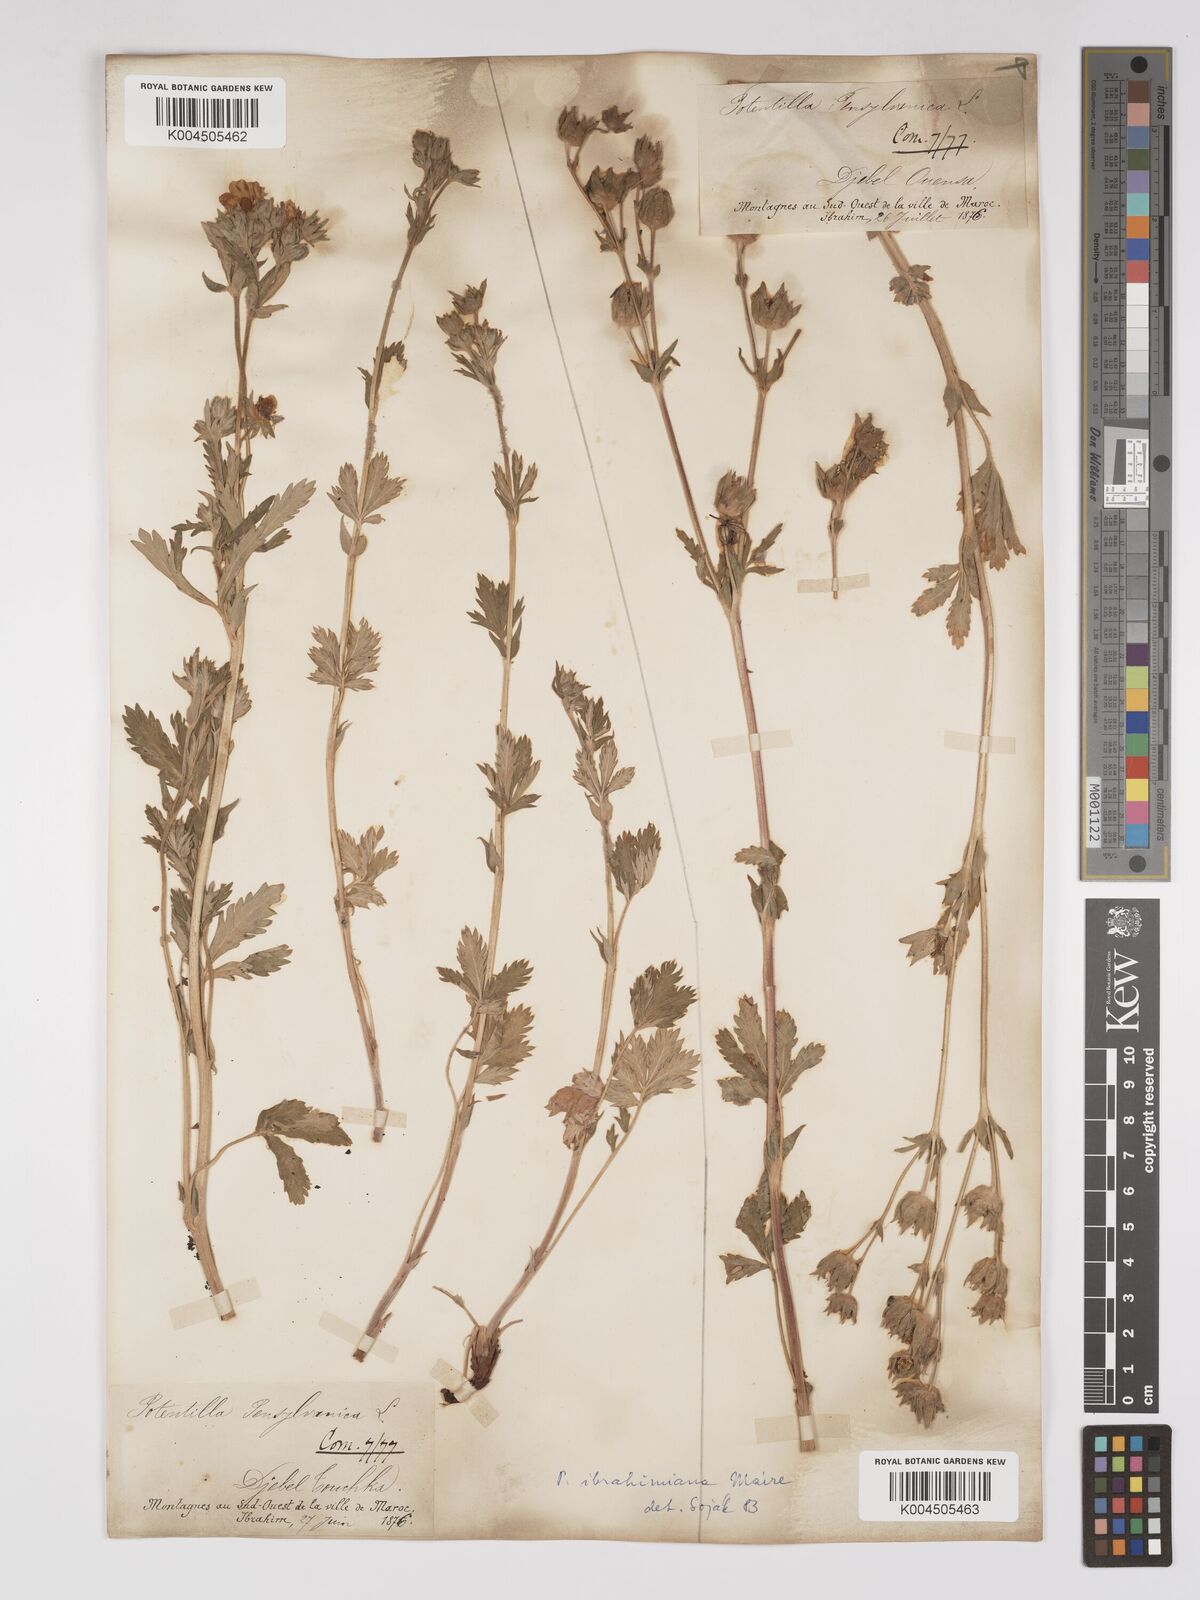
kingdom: Plantae
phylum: Tracheophyta
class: Magnoliopsida
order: Rosales
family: Rosaceae
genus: Potentilla
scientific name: Potentilla pensylvanica
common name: Pennsylvania cinquefoil
